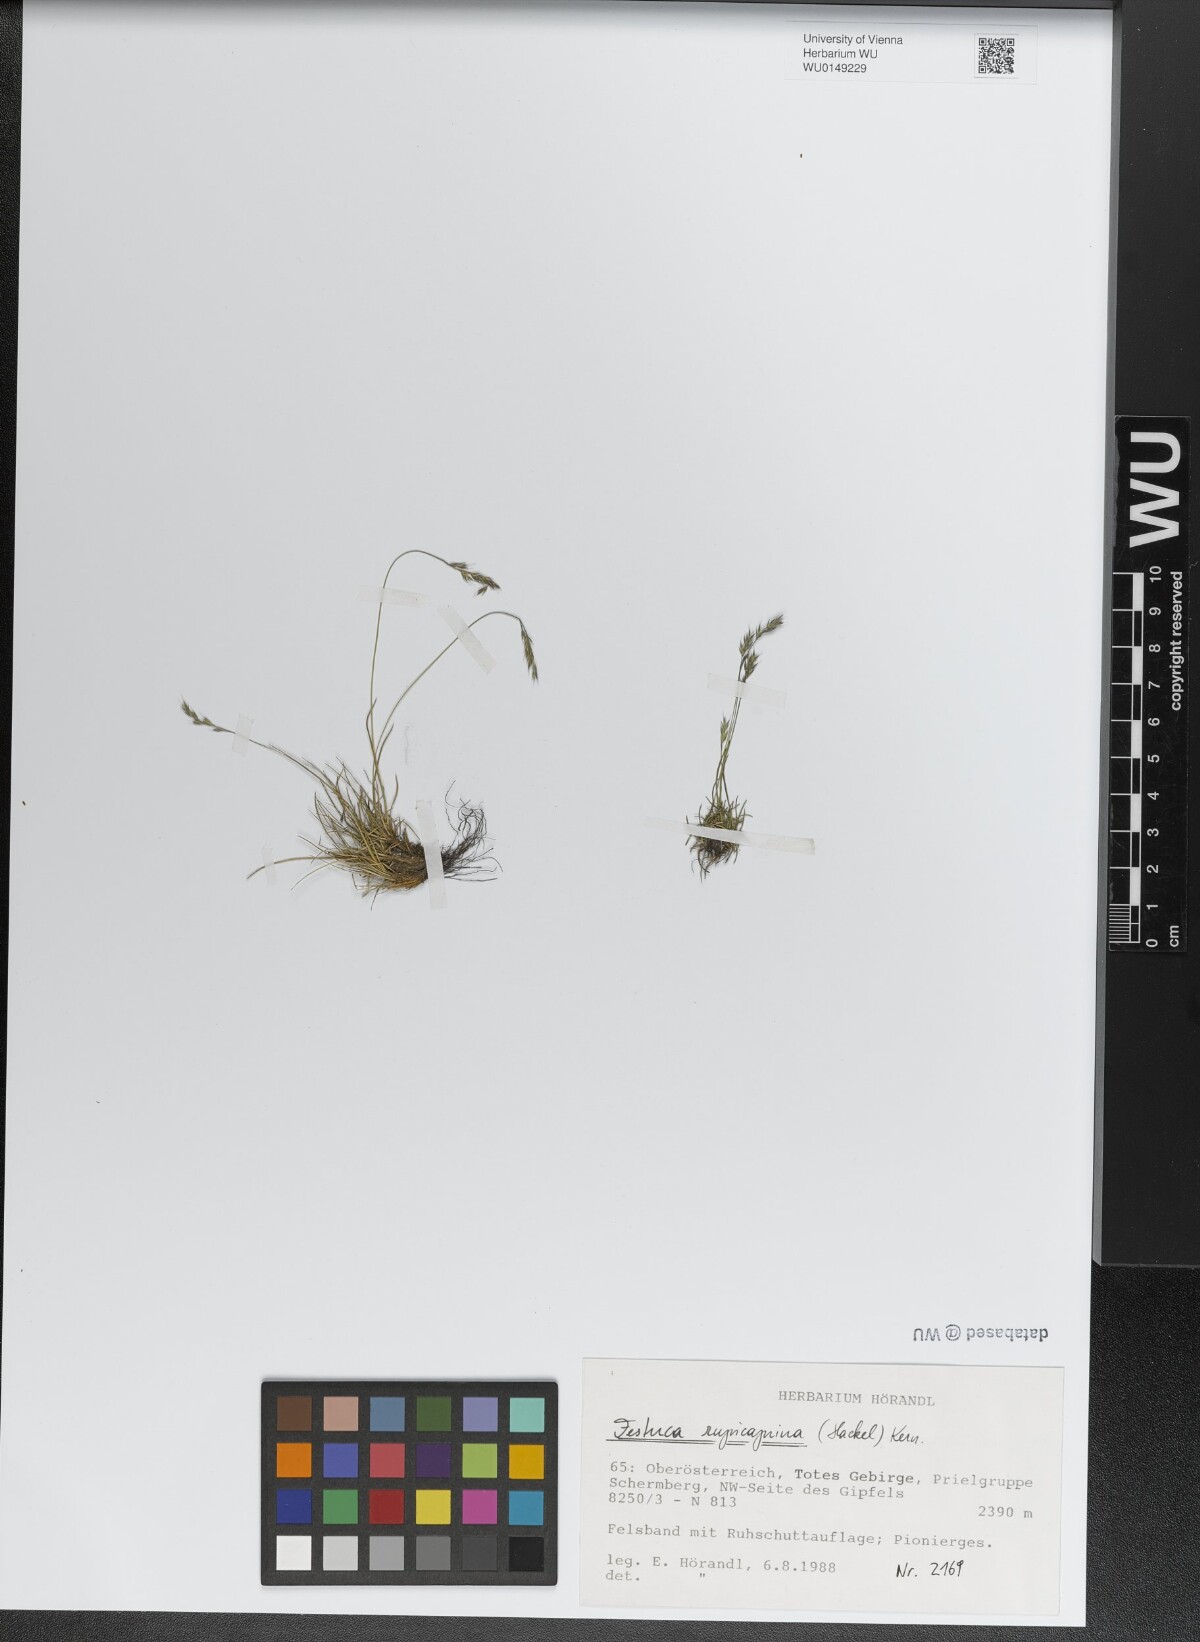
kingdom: Plantae
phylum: Tracheophyta
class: Liliopsida
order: Poales
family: Poaceae
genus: Festuca
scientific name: Festuca rupicaprina
